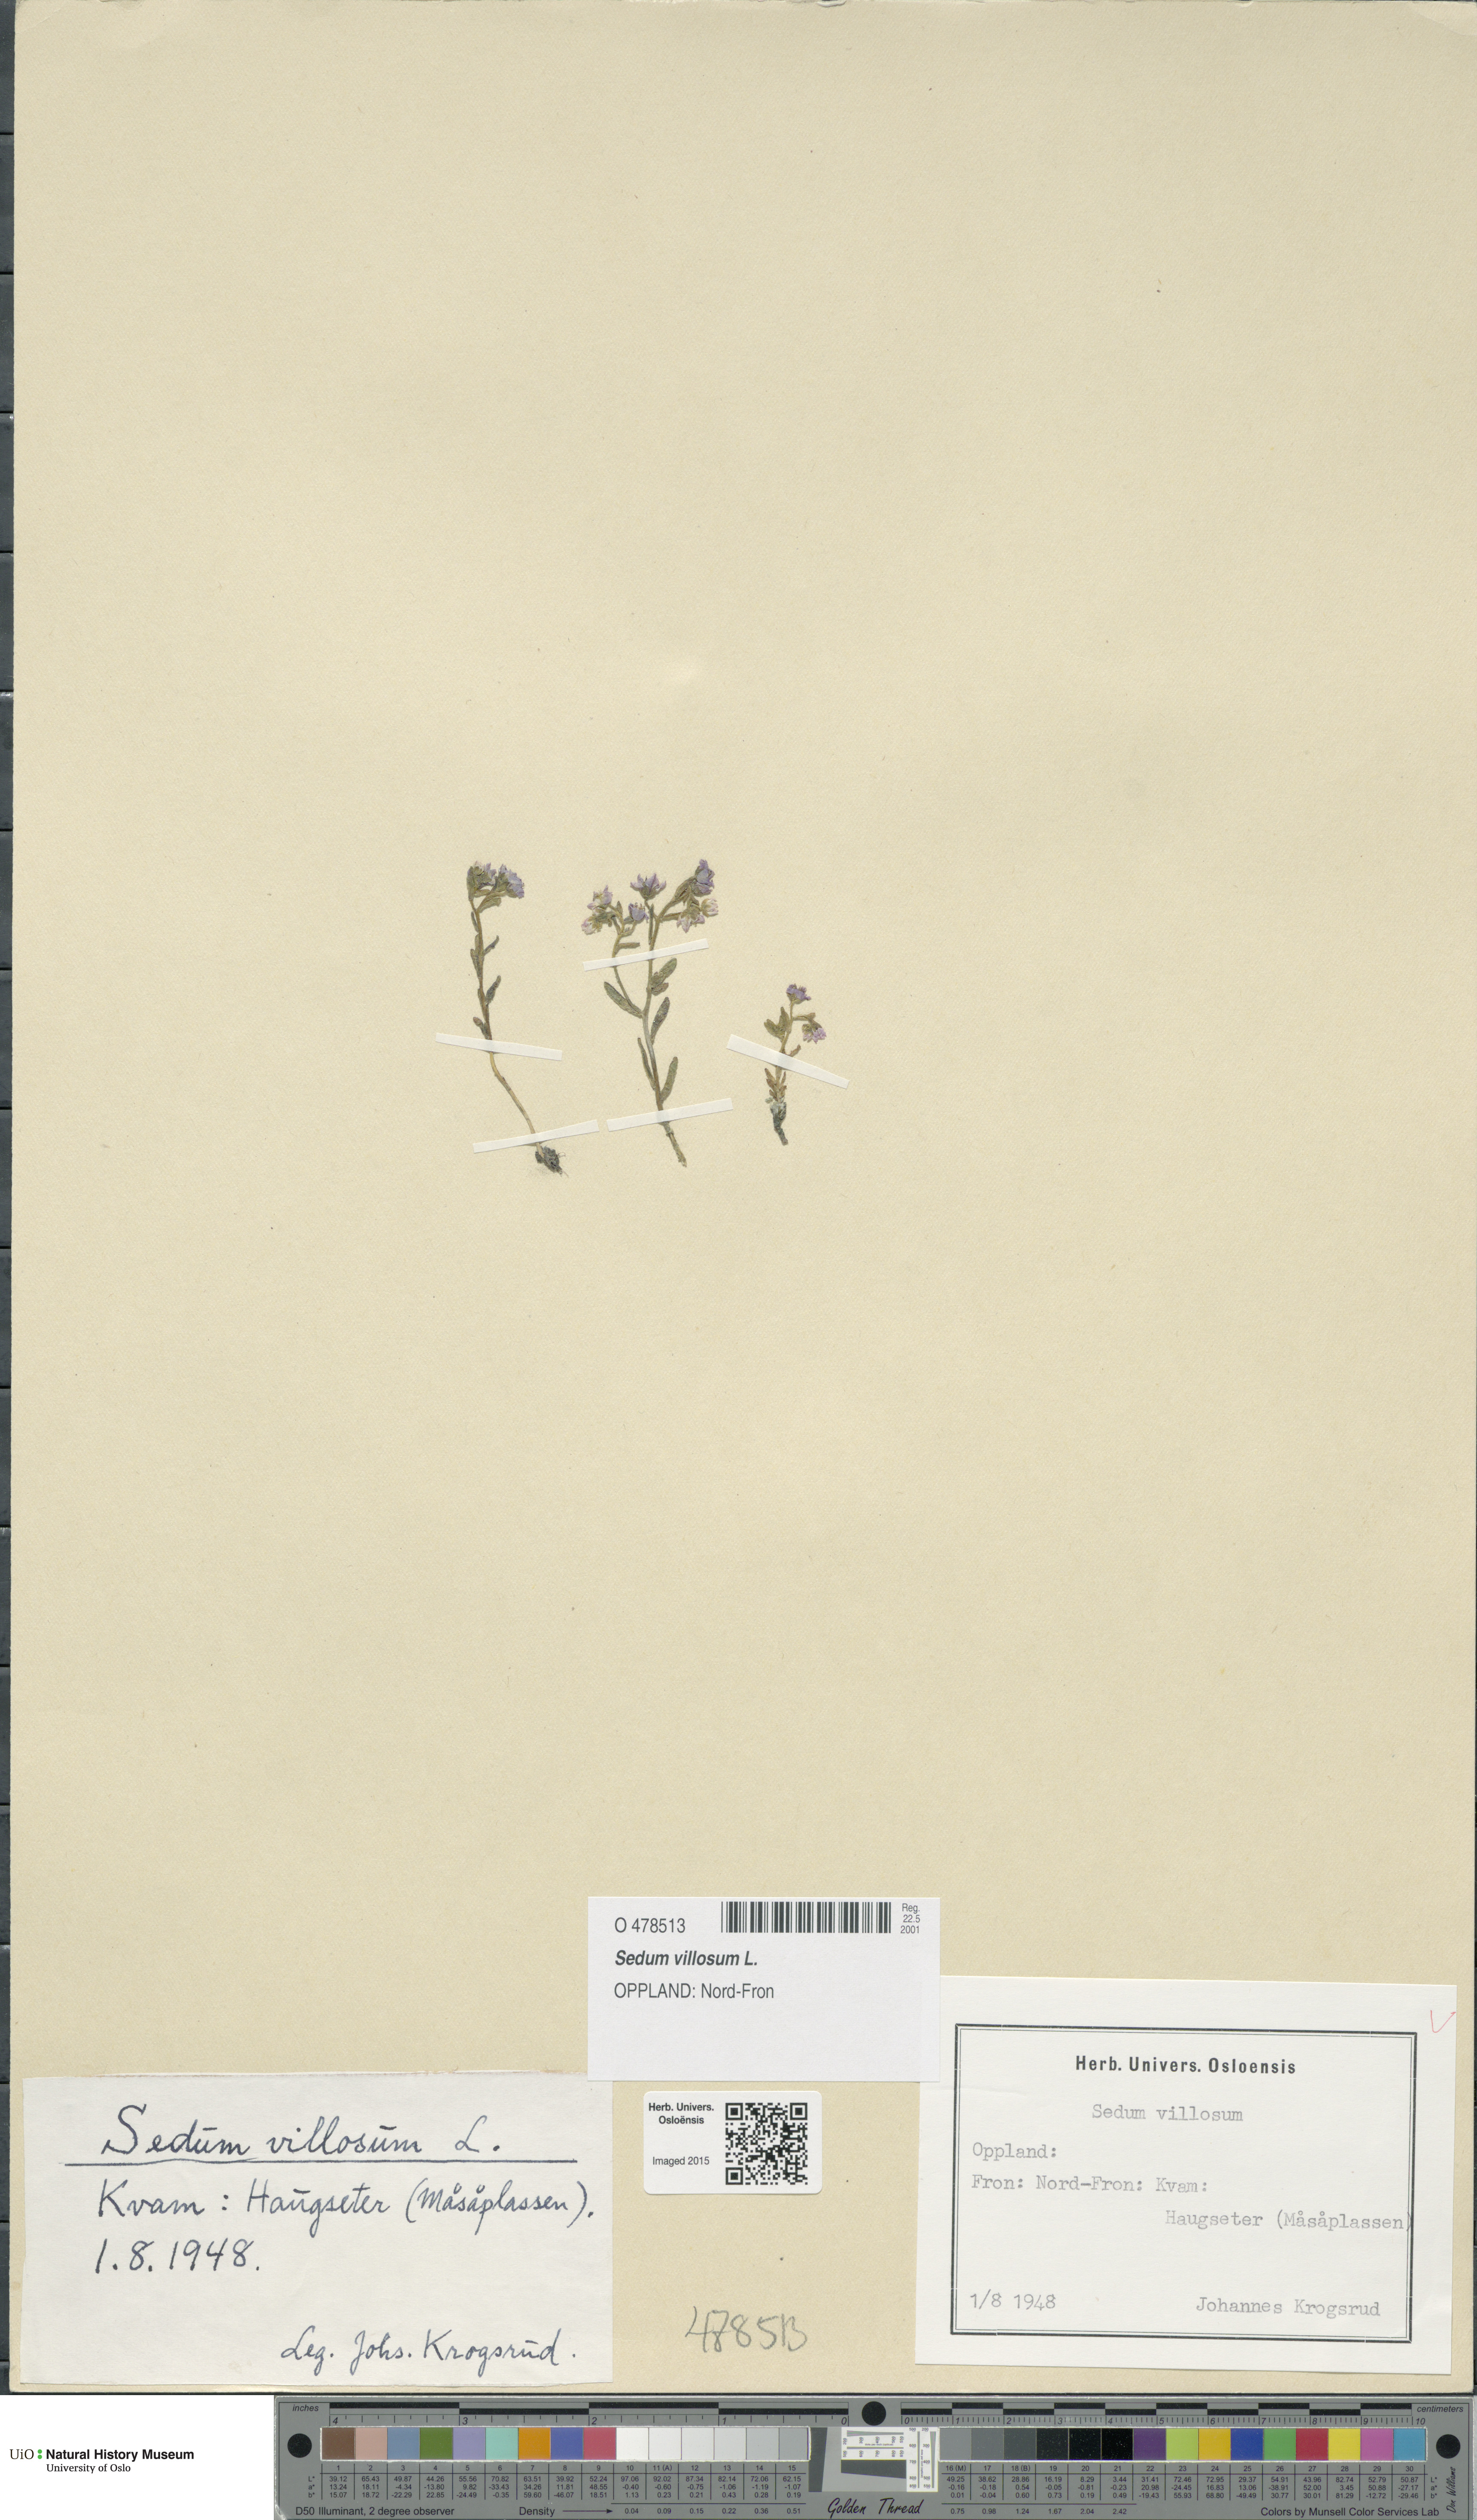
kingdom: Plantae
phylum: Tracheophyta
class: Magnoliopsida
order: Saxifragales
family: Crassulaceae
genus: Sedum
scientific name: Sedum villosum
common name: Hairy stonecrop
